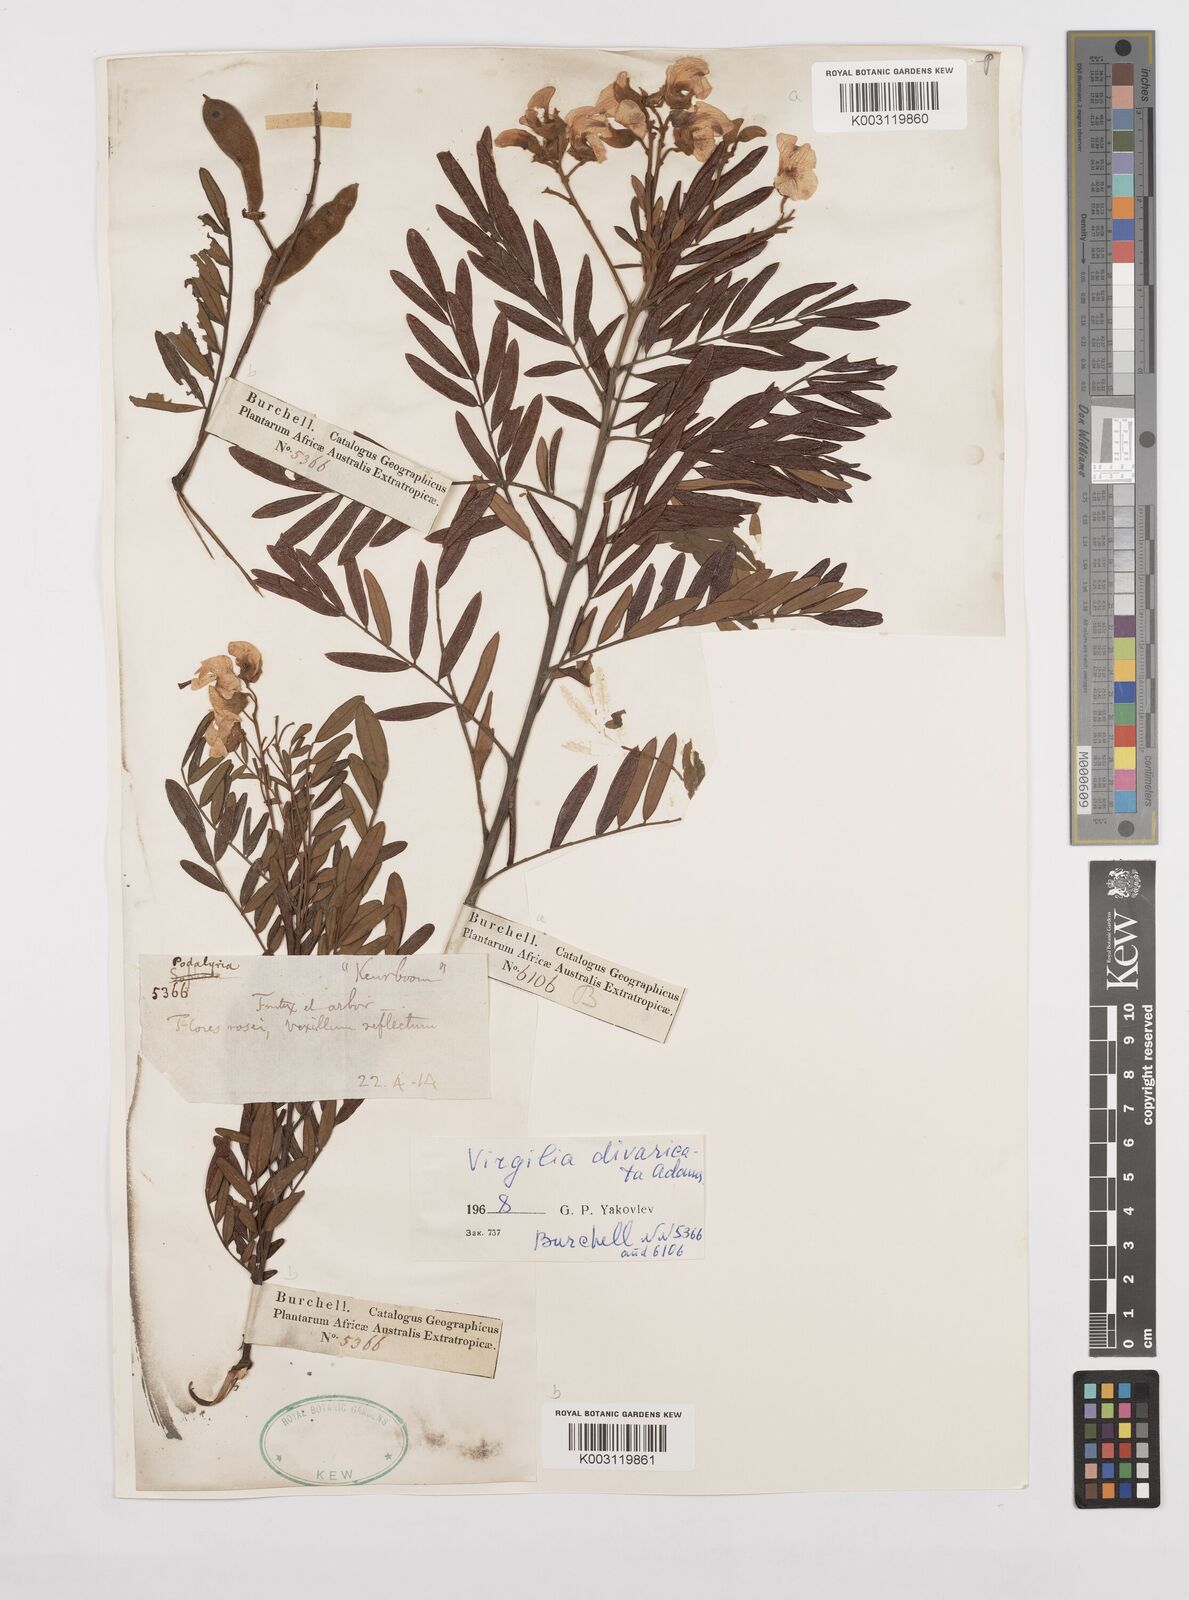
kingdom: Plantae
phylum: Tracheophyta
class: Magnoliopsida
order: Fabales
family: Fabaceae
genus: Virgilia
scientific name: Virgilia divaricata
